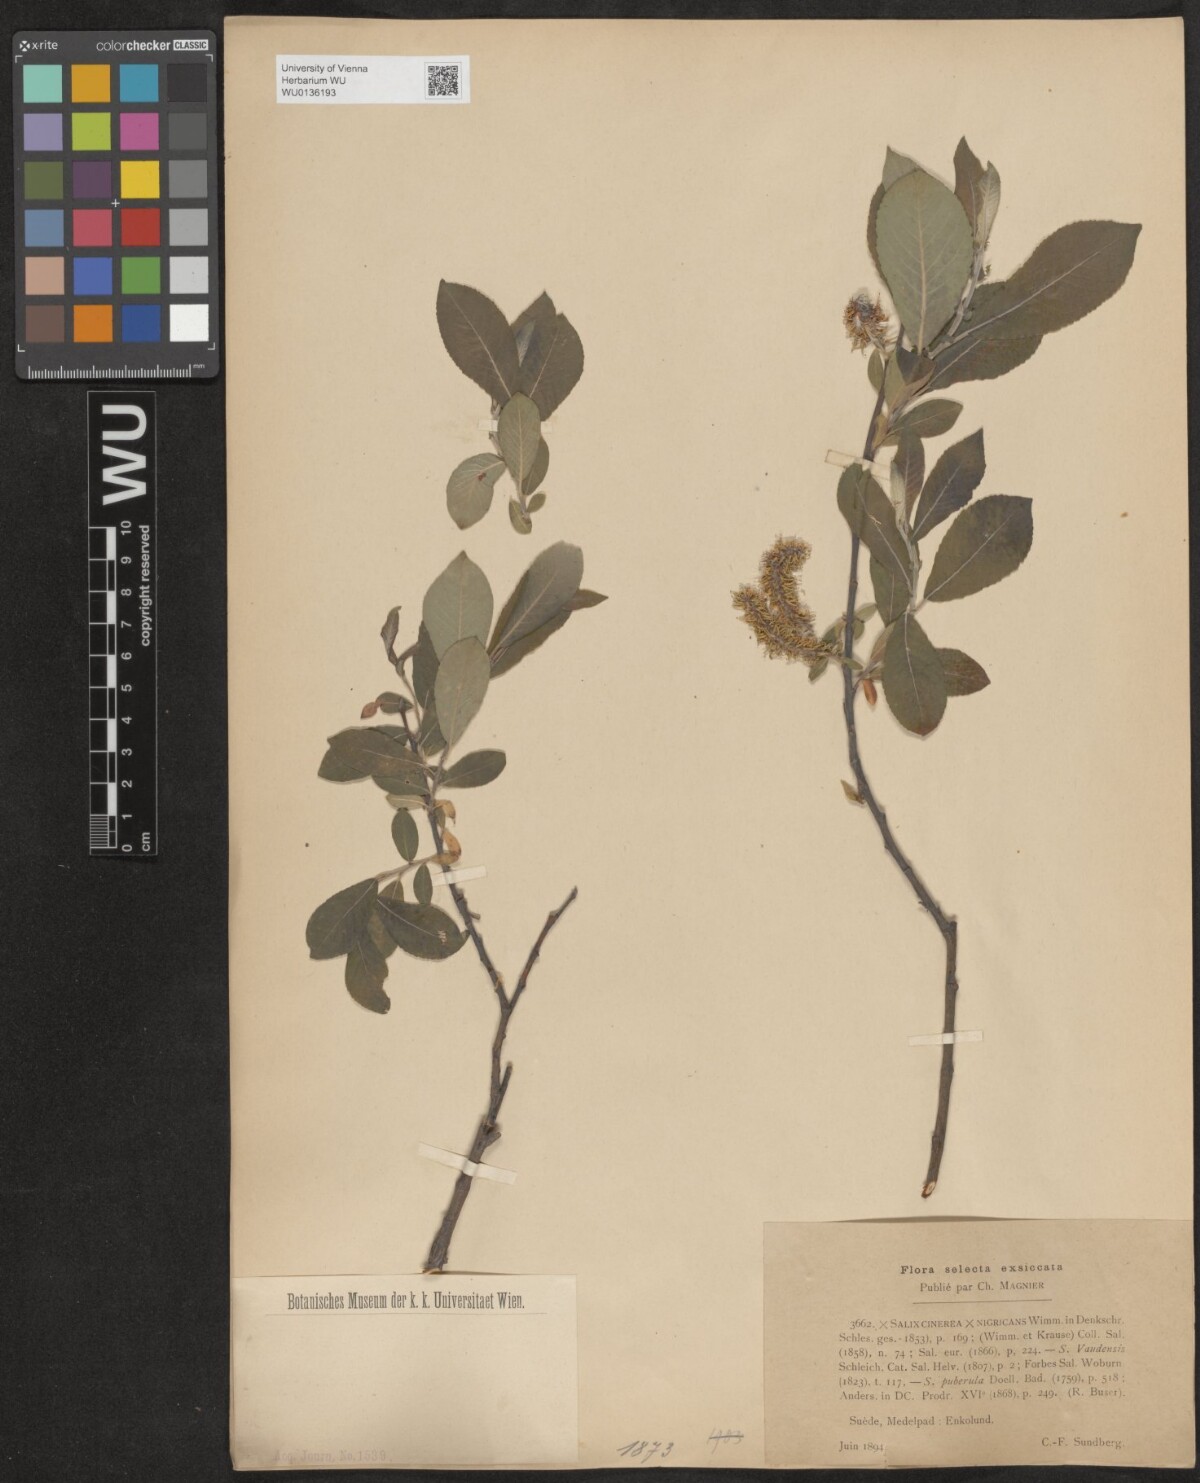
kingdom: Plantae
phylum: Tracheophyta
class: Magnoliopsida
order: Malpighiales
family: Salicaceae
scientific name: Salicaceae
